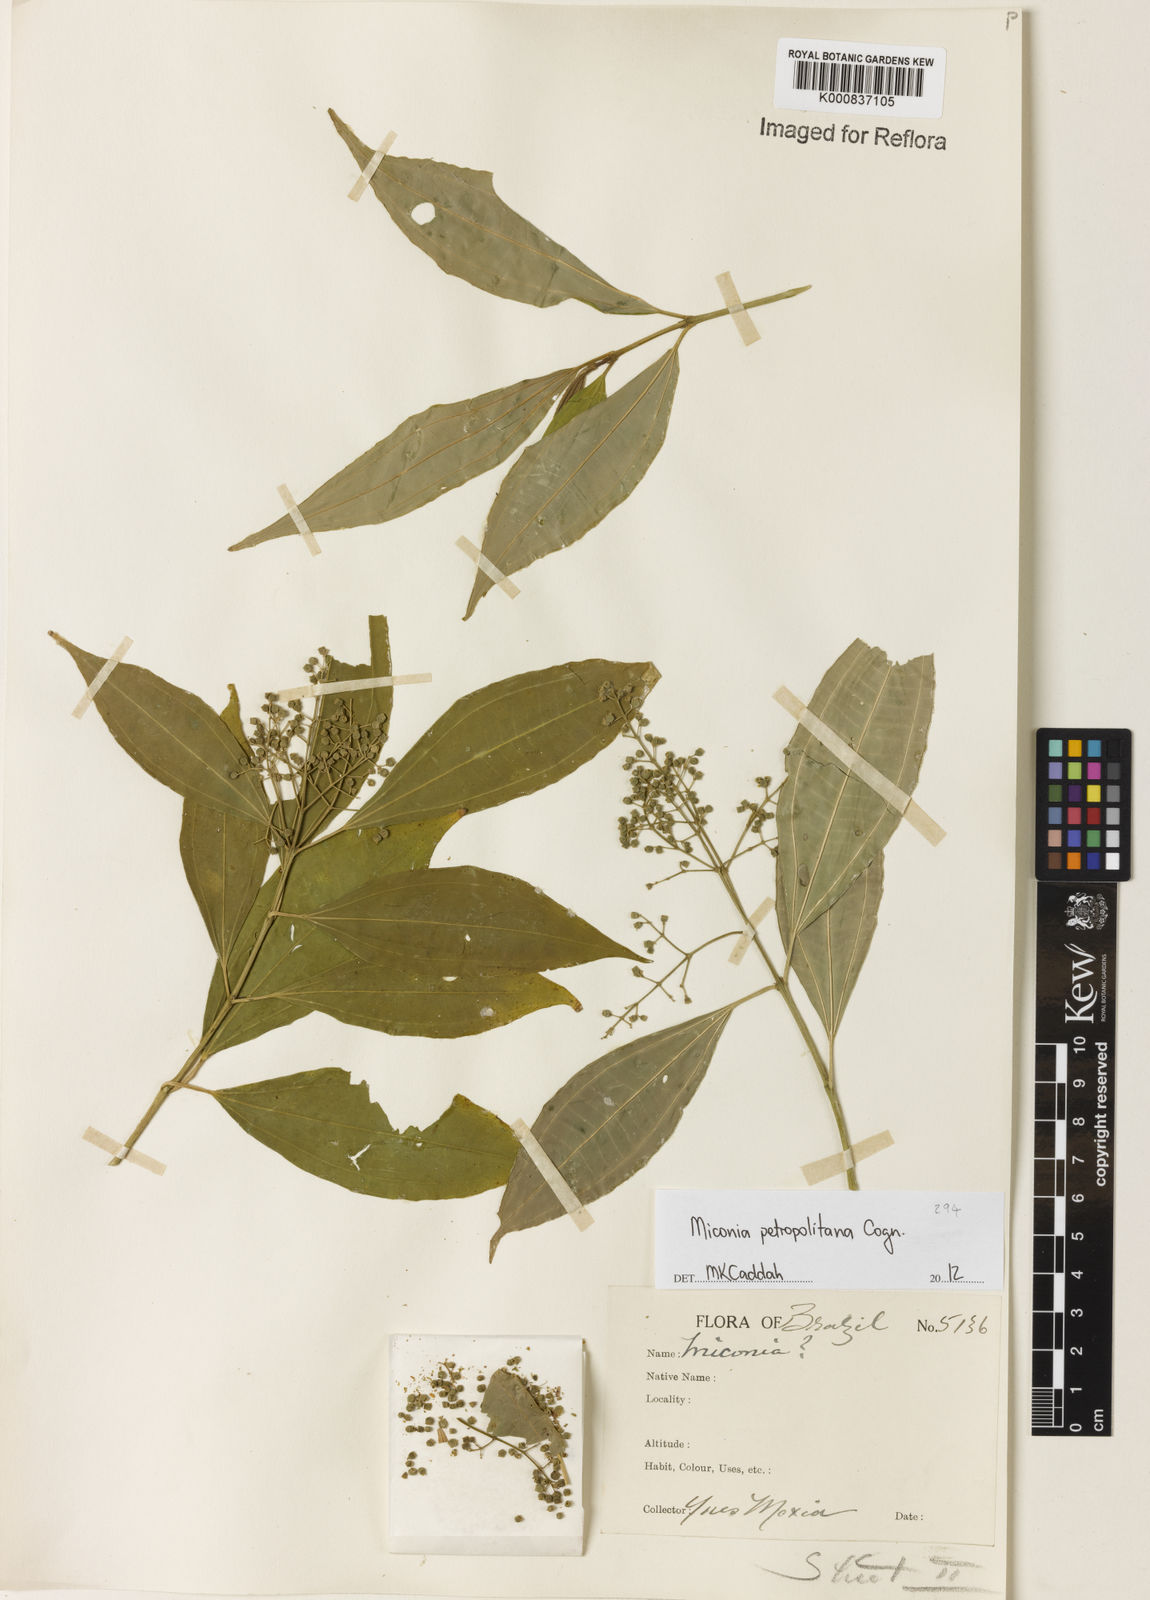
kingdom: Plantae
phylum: Tracheophyta
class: Magnoliopsida
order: Myrtales
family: Melastomataceae
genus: Miconia
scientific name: Miconia petropolitana
